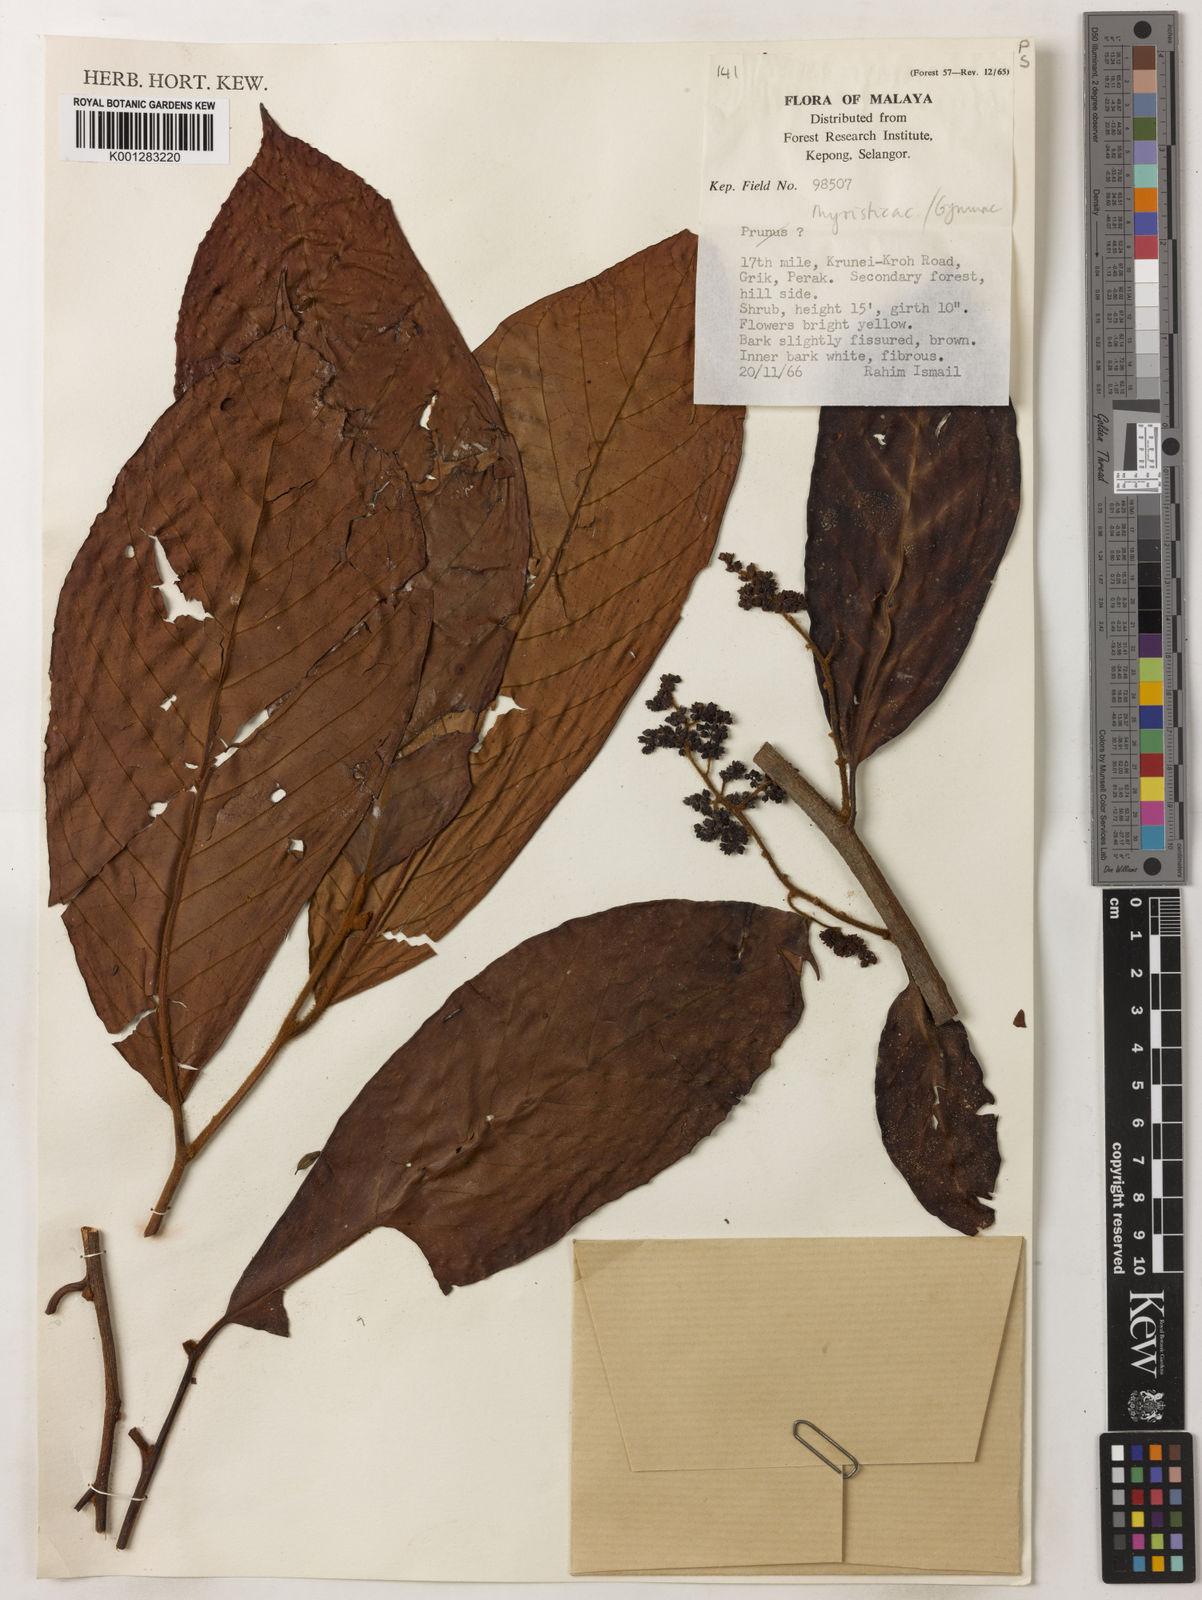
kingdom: Plantae
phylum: Tracheophyta
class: Magnoliopsida
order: Magnoliales
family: Myristicaceae
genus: Gymnacranthera
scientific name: Gymnacranthera
